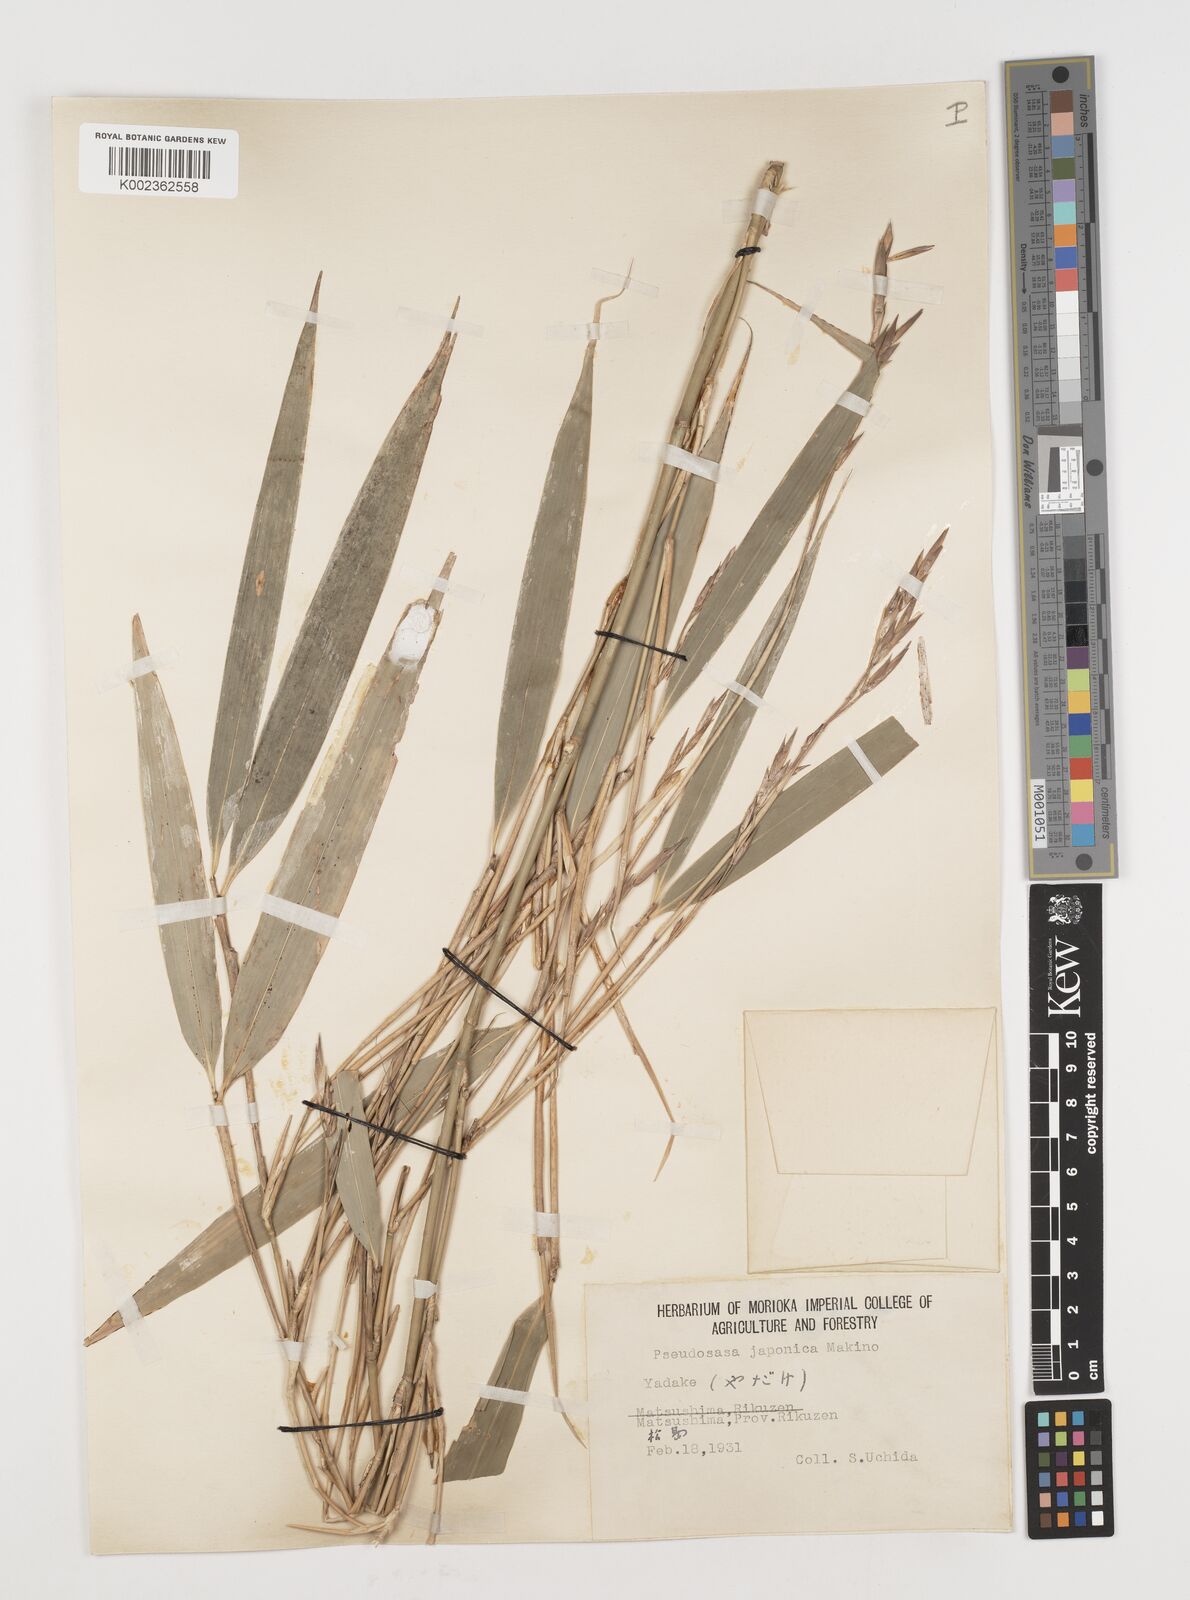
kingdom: Plantae
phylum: Tracheophyta
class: Liliopsida
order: Poales
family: Poaceae
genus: Pseudosasa
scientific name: Pseudosasa japonica
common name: Arrow bamboo
